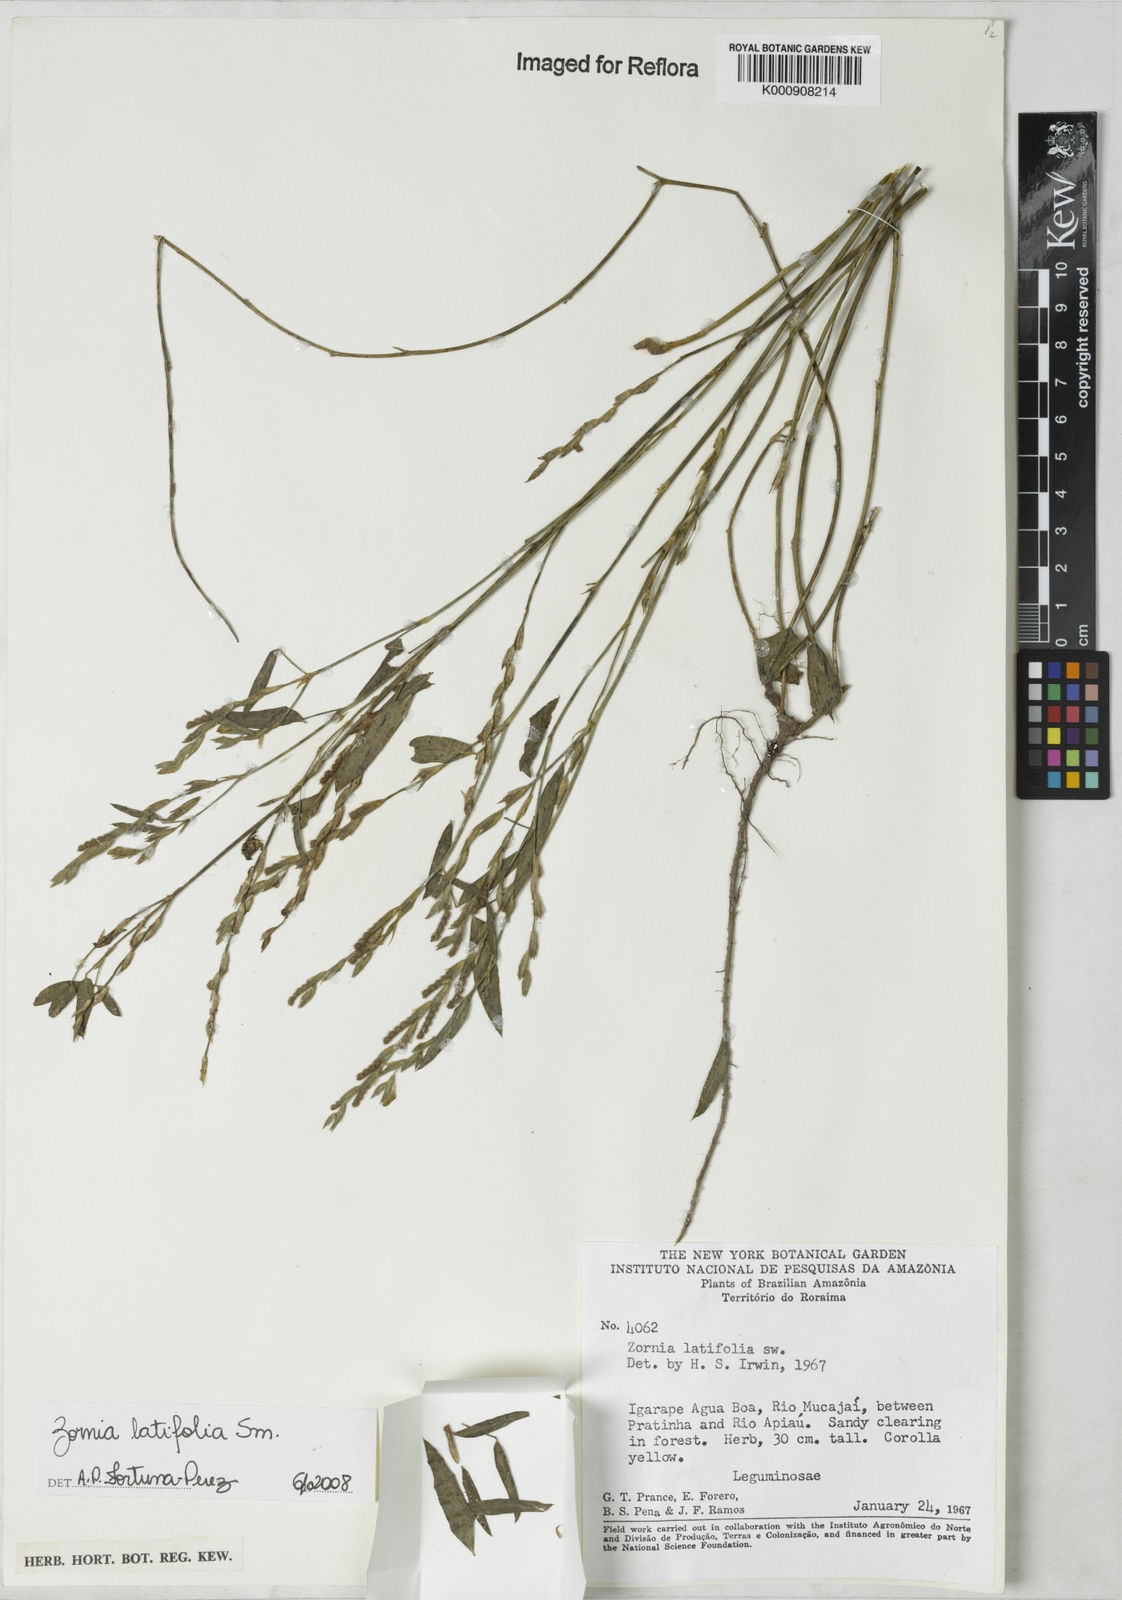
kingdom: Plantae
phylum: Tracheophyta
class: Magnoliopsida
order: Fabales
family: Fabaceae
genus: Zornia
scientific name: Zornia latifolia
